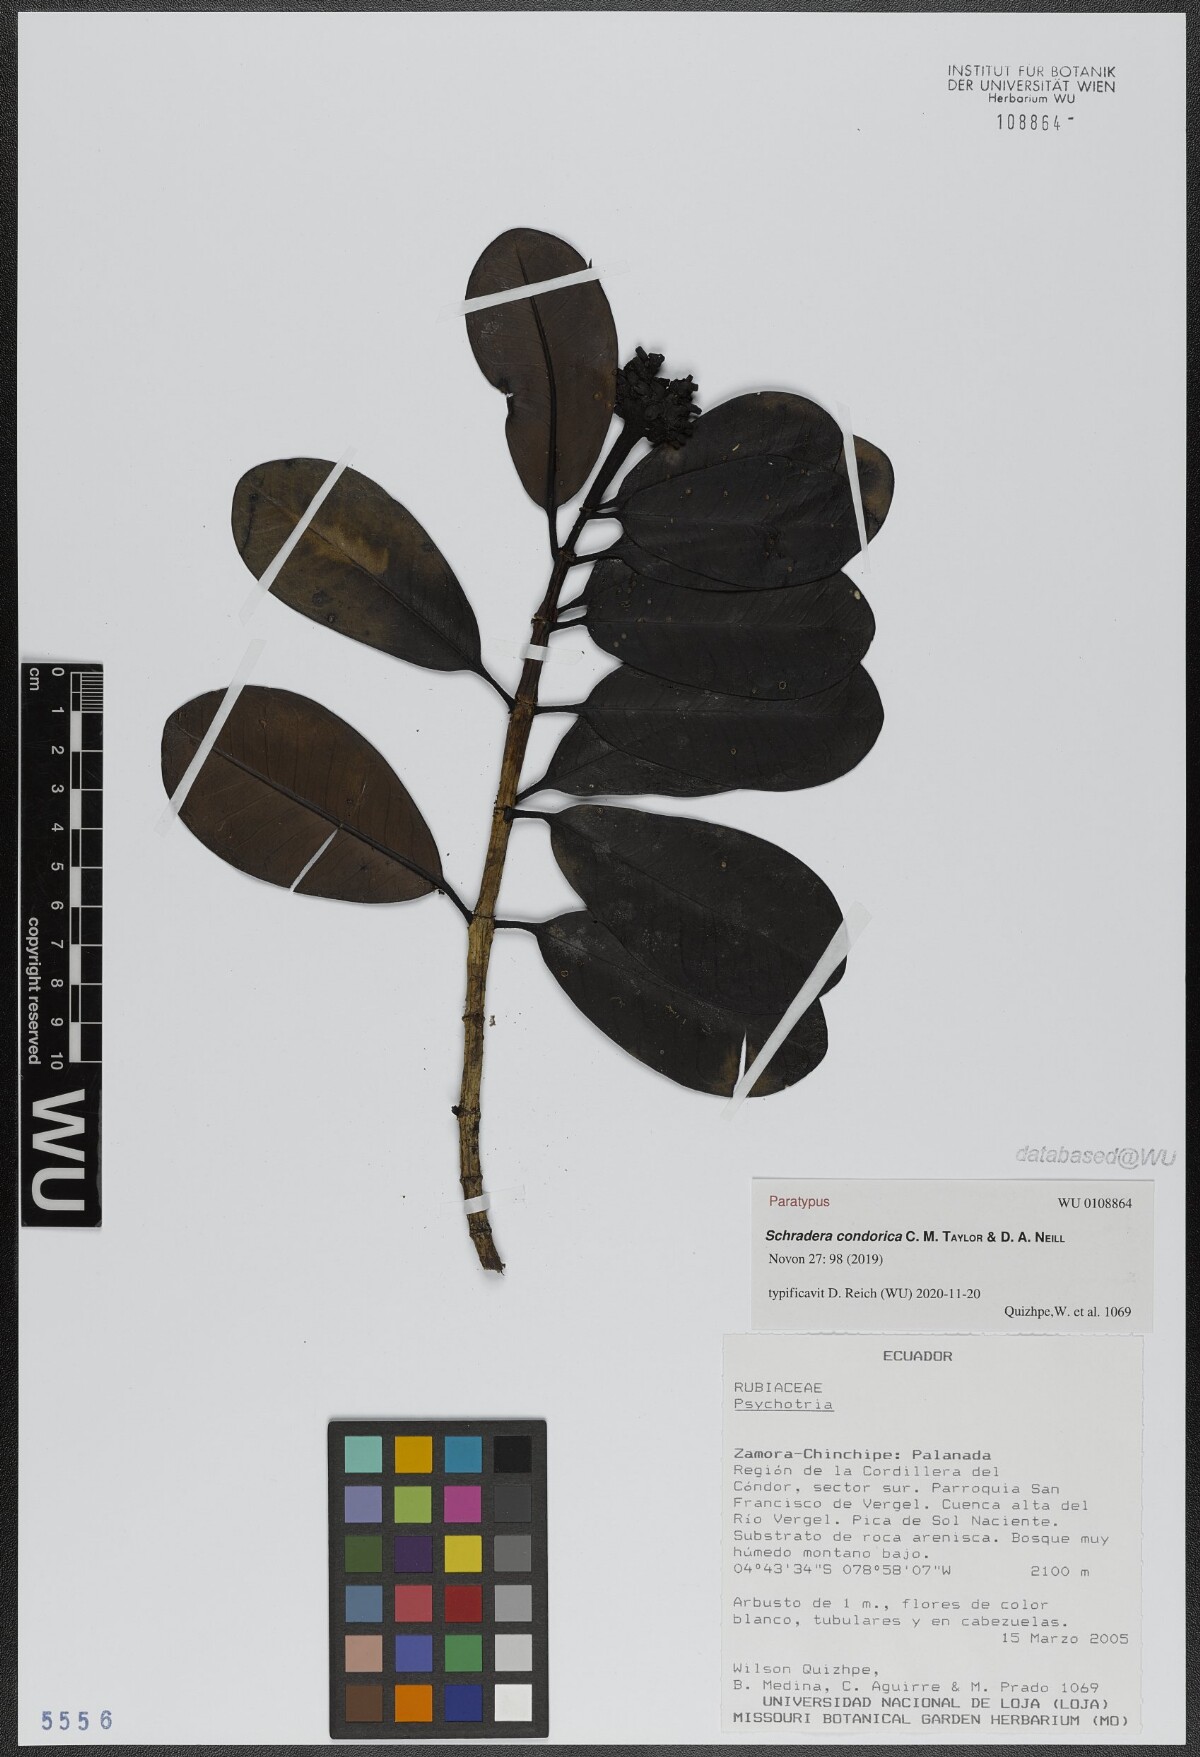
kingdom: Plantae
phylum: Tracheophyta
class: Magnoliopsida
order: Gentianales
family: Rubiaceae
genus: Schradera
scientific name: Schradera condorica
